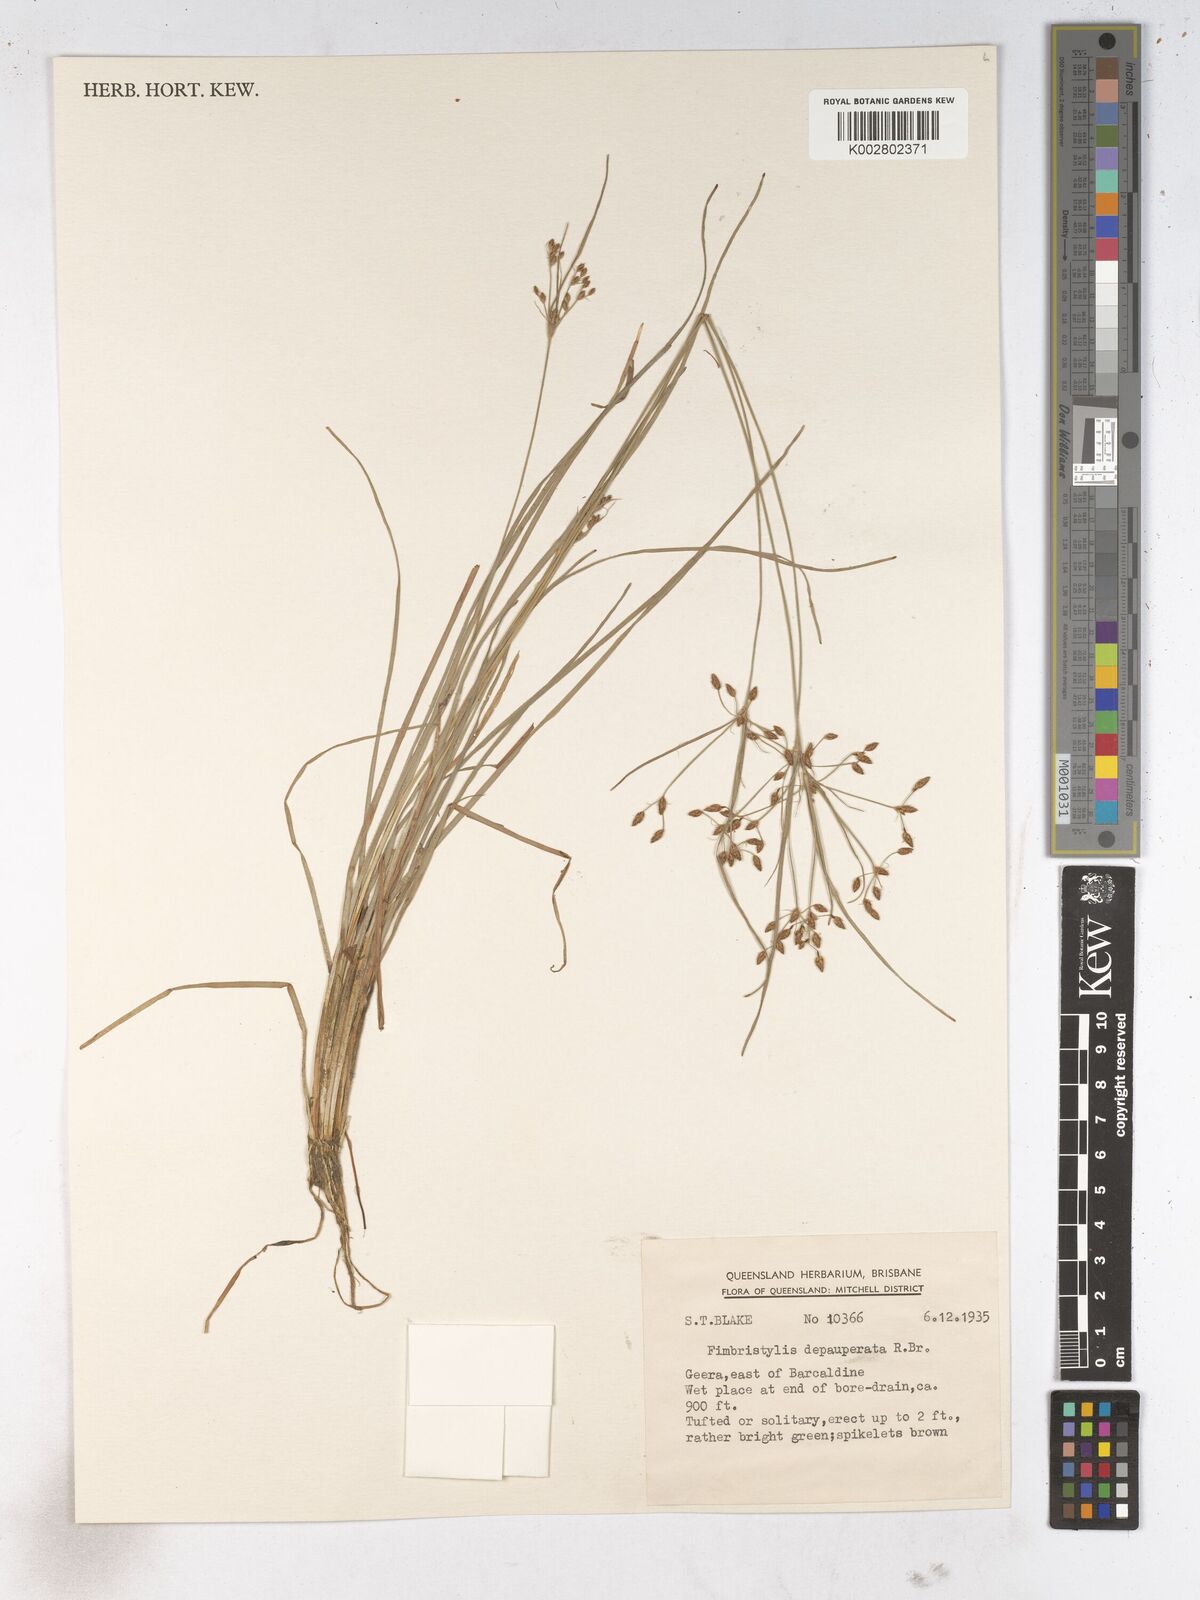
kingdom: Plantae
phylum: Tracheophyta
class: Liliopsida
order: Poales
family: Cyperaceae
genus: Fimbristylis
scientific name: Fimbristylis dichotoma
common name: Forked fimbry
